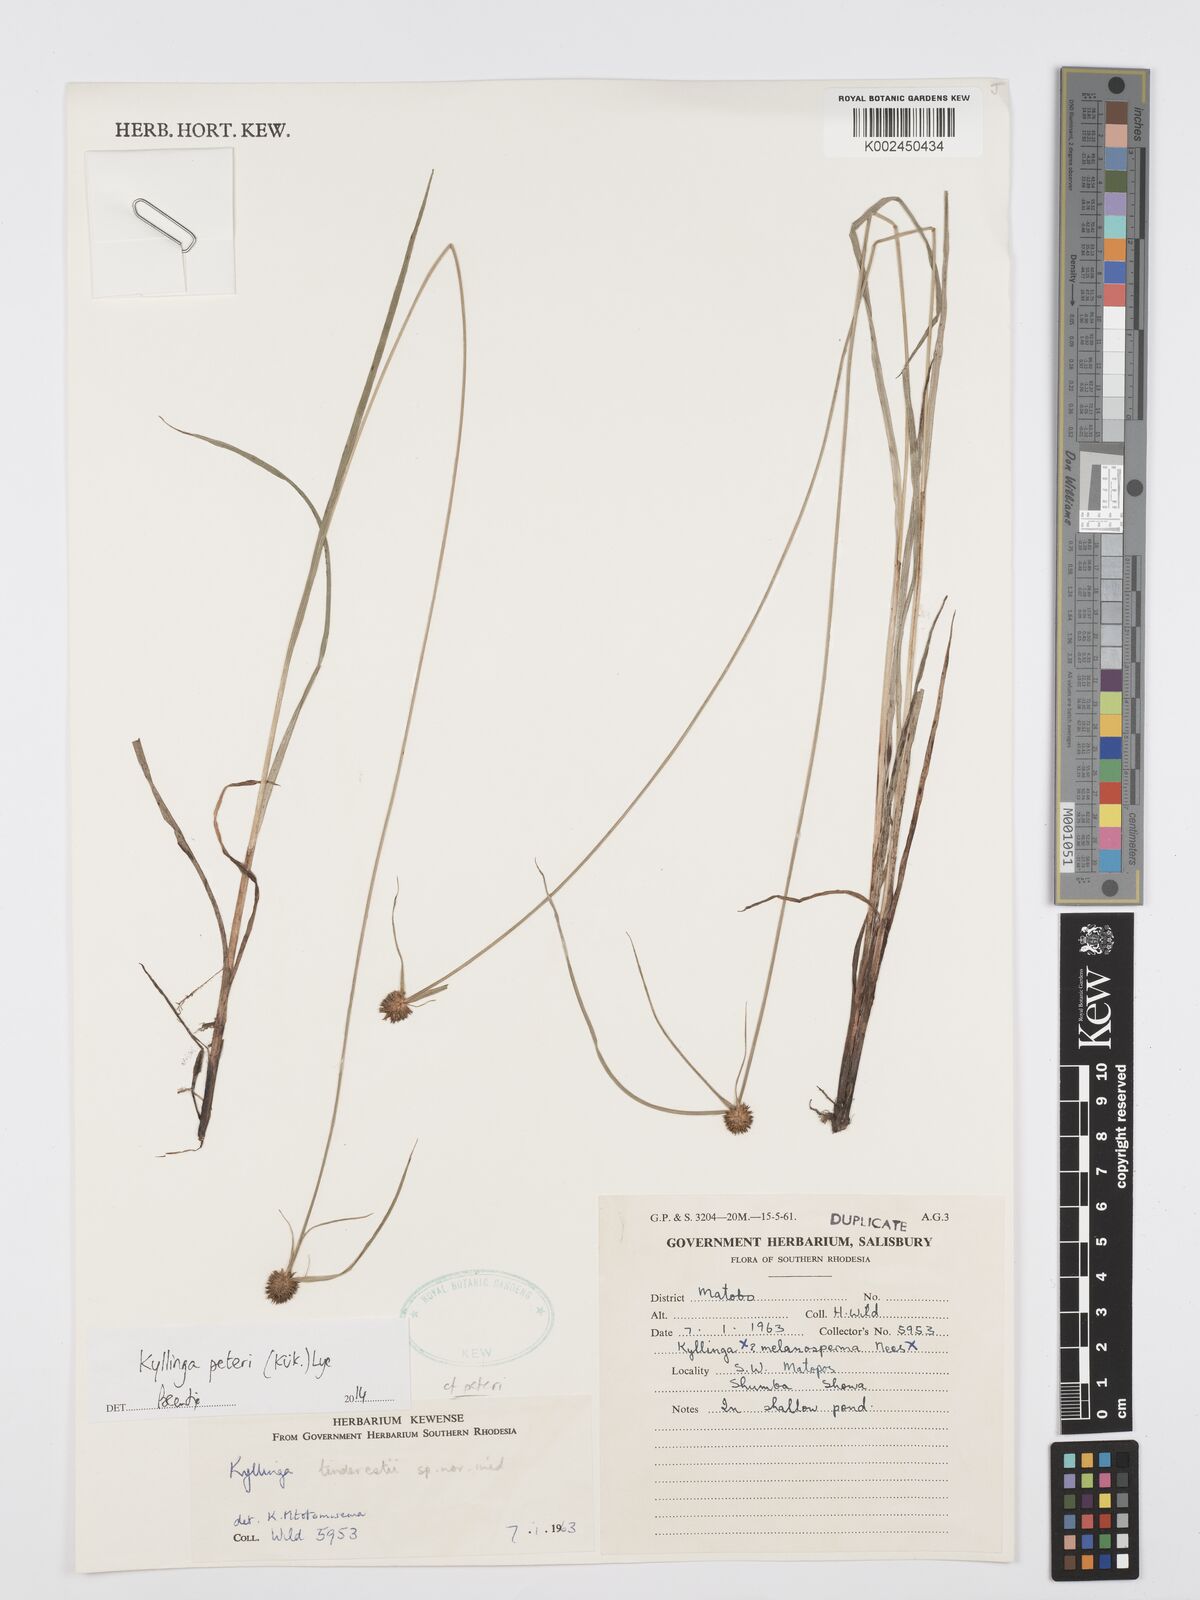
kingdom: Plantae
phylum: Tracheophyta
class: Liliopsida
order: Poales
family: Cyperaceae
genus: Cyperus
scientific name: Cyperus peteri
